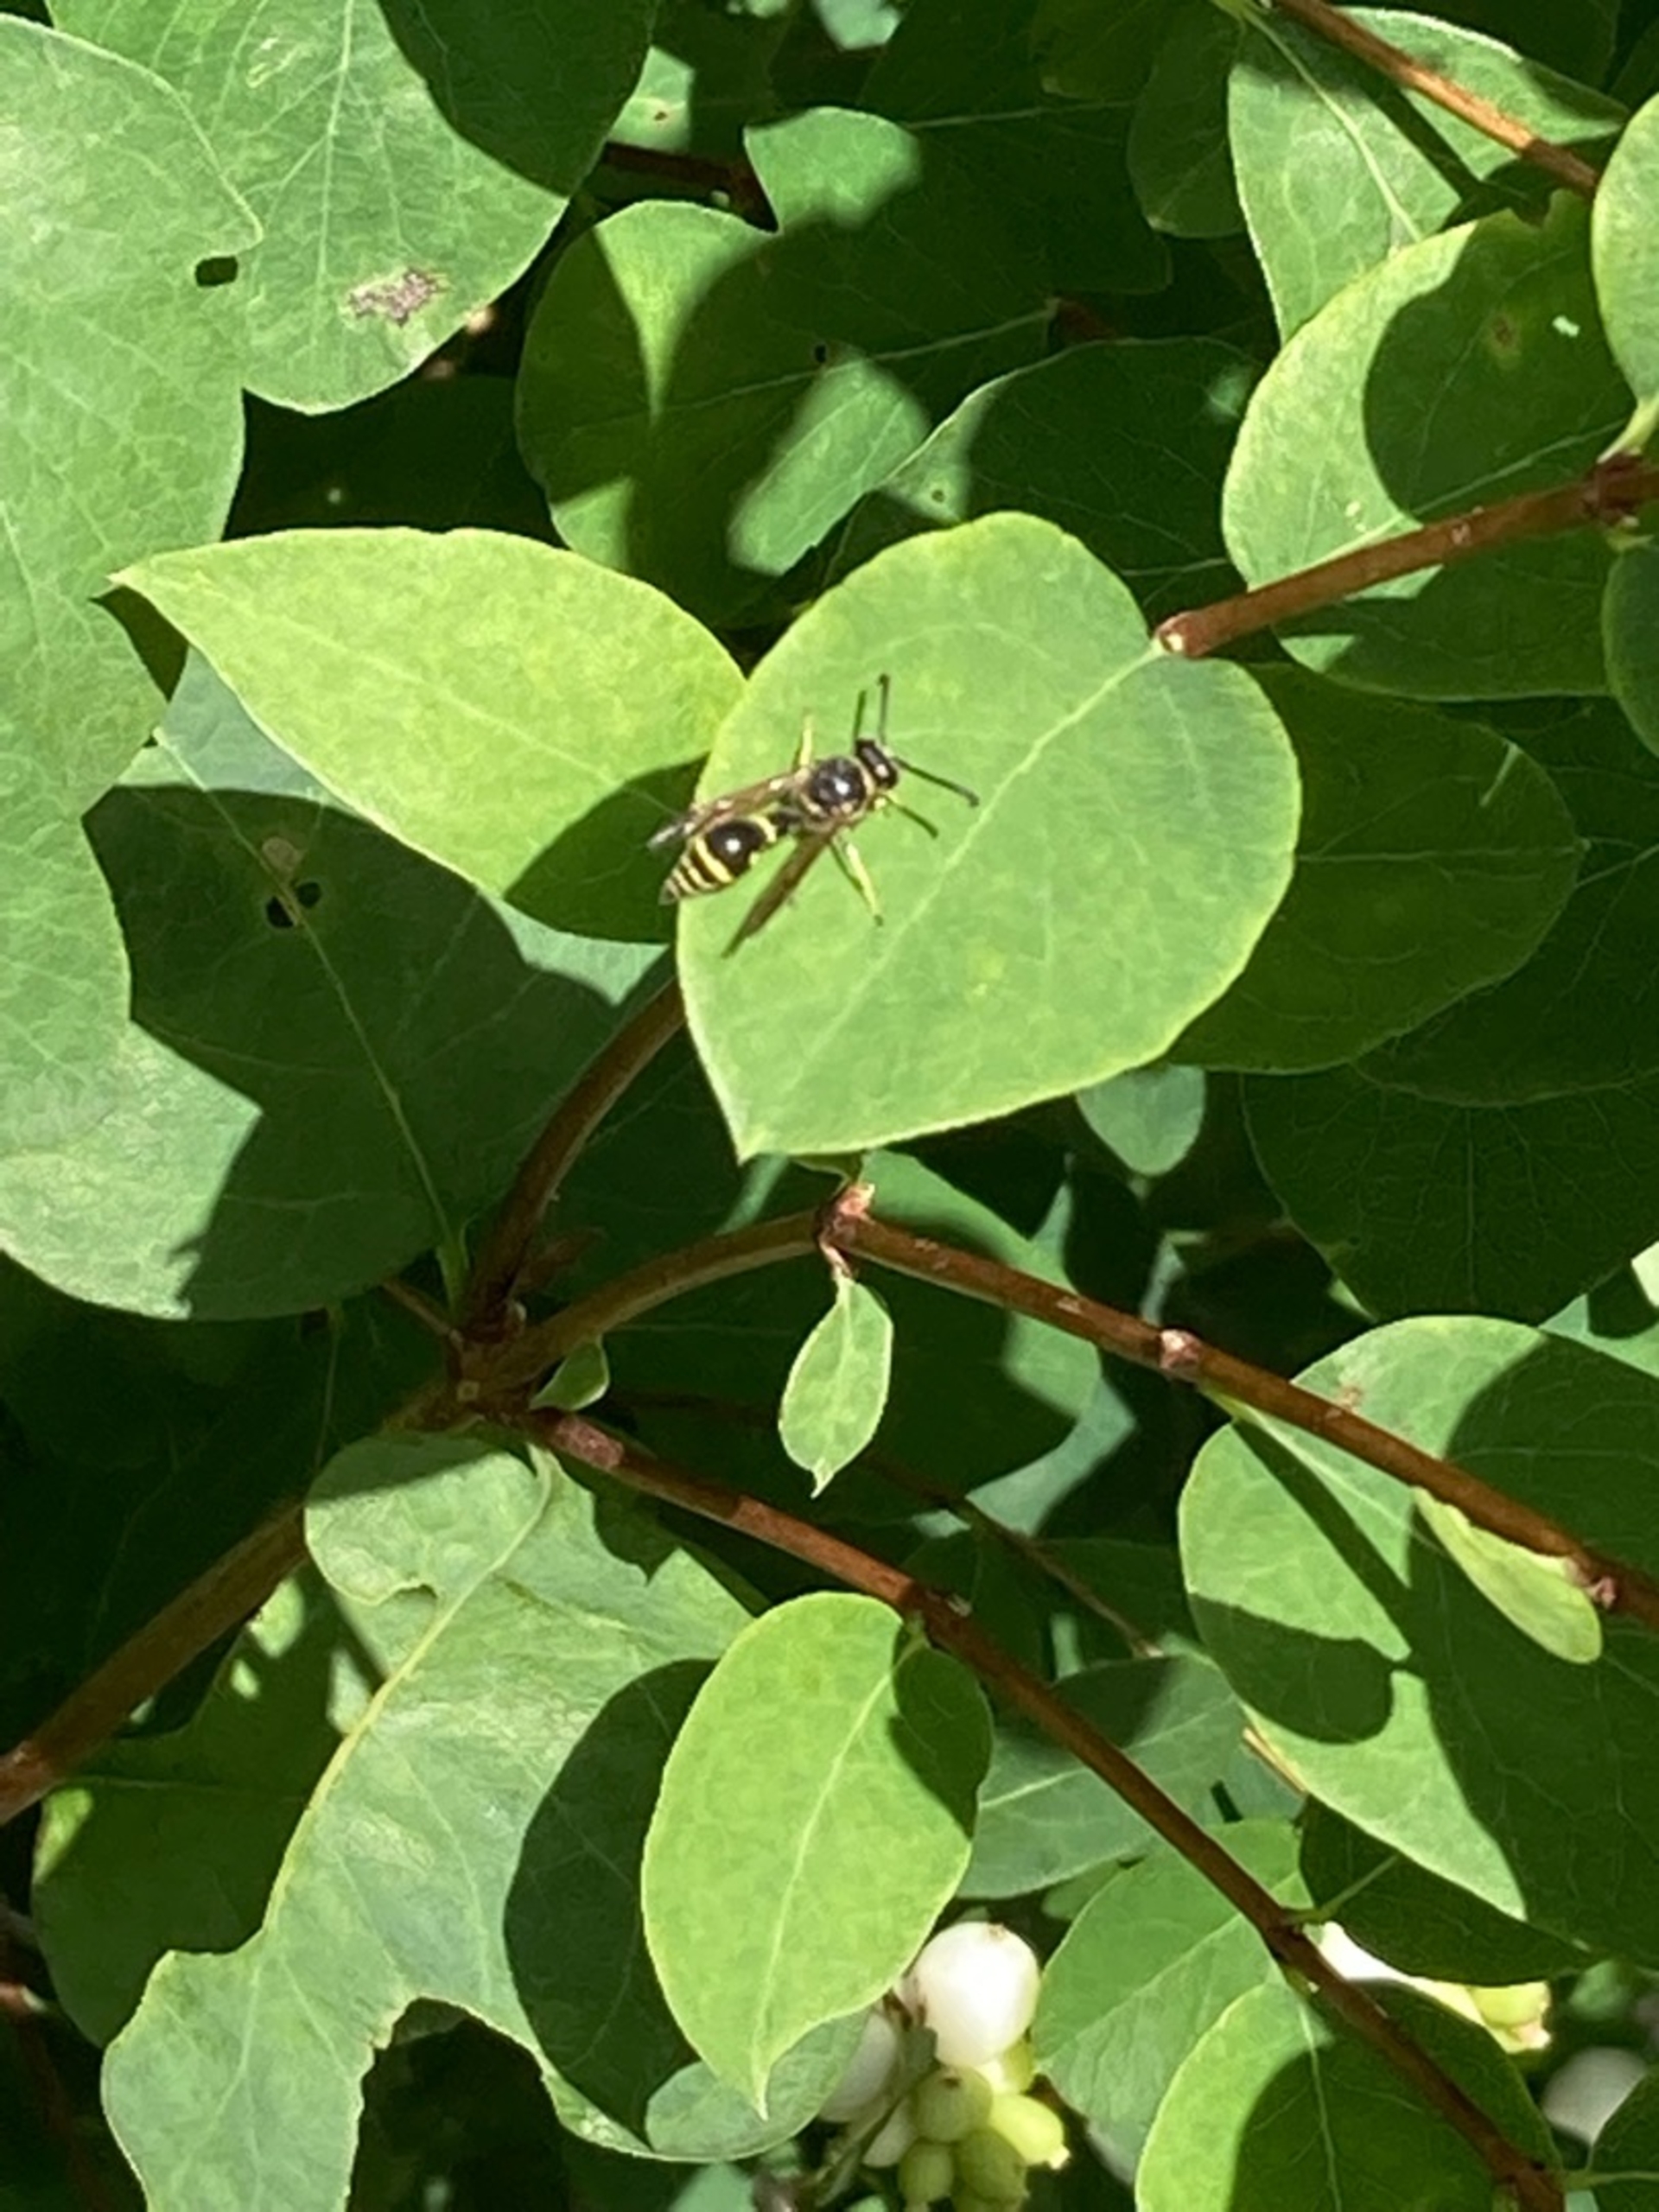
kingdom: Animalia
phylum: Arthropoda
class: Insecta
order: Hymenoptera
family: Vespidae
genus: Eumenes
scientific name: Eumenes
